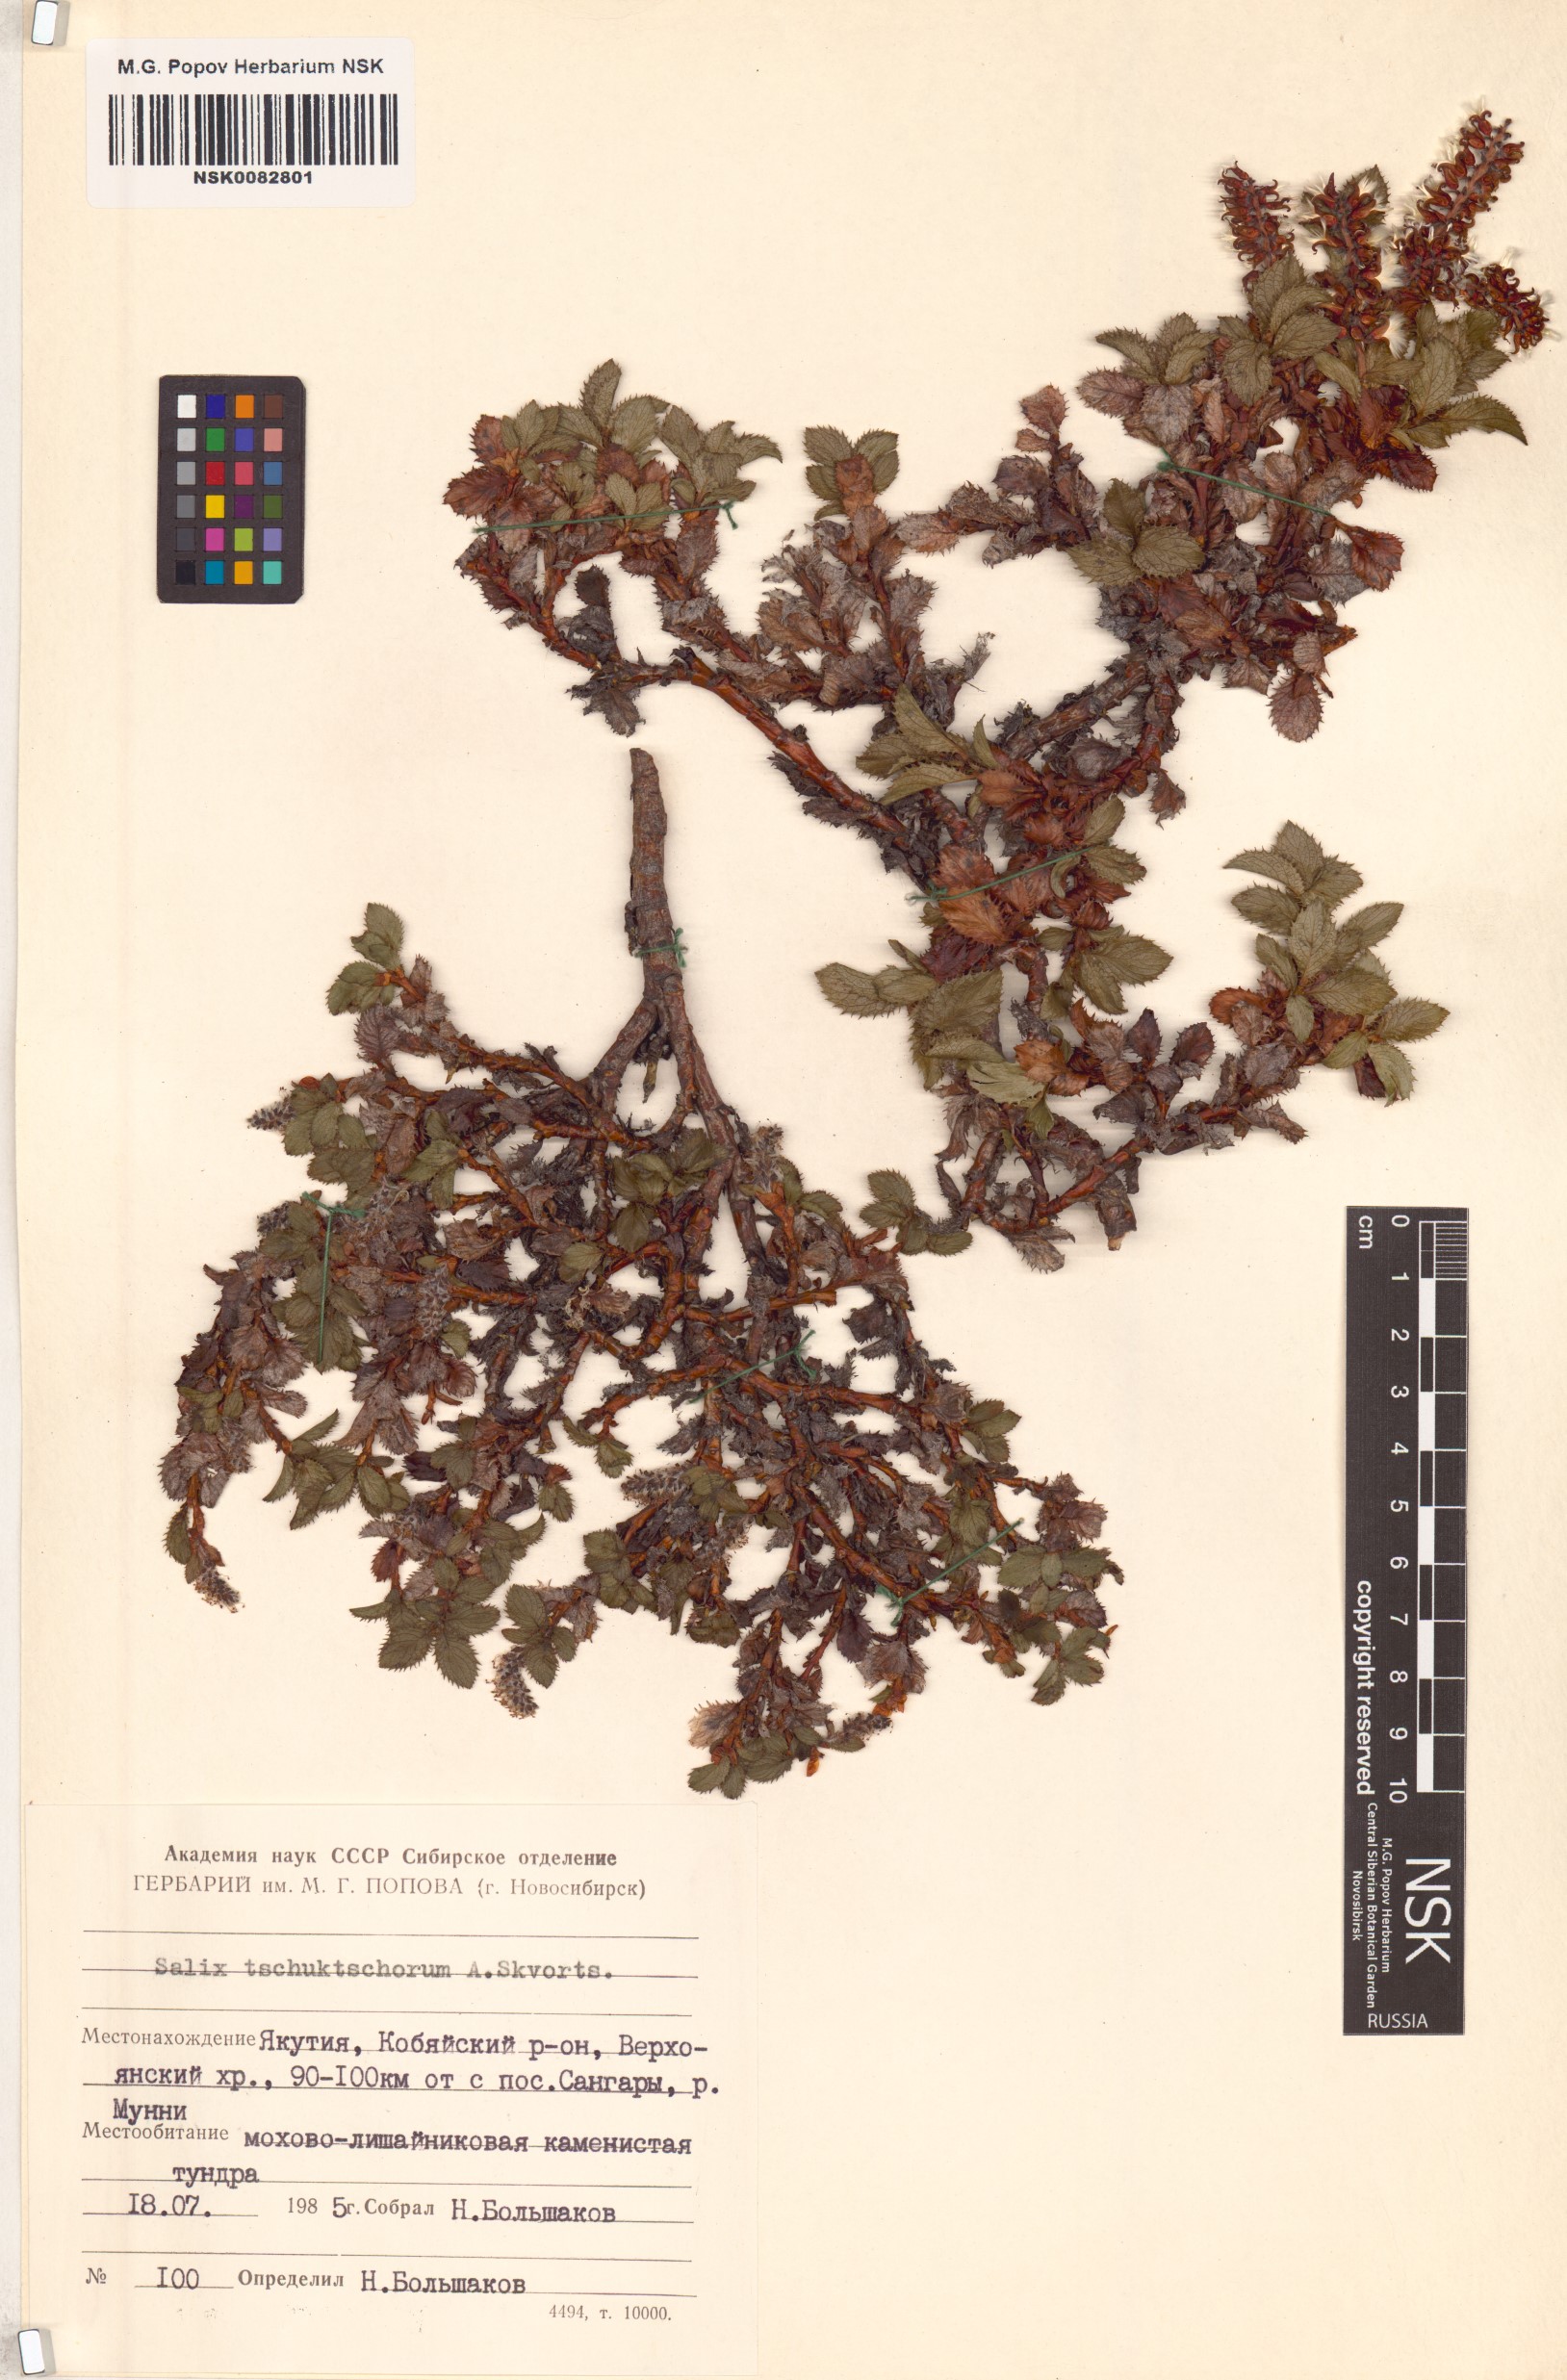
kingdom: Plantae
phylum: Tracheophyta
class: Magnoliopsida
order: Malpighiales
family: Salicaceae
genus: Salix
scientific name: Salix tschuktschorum
